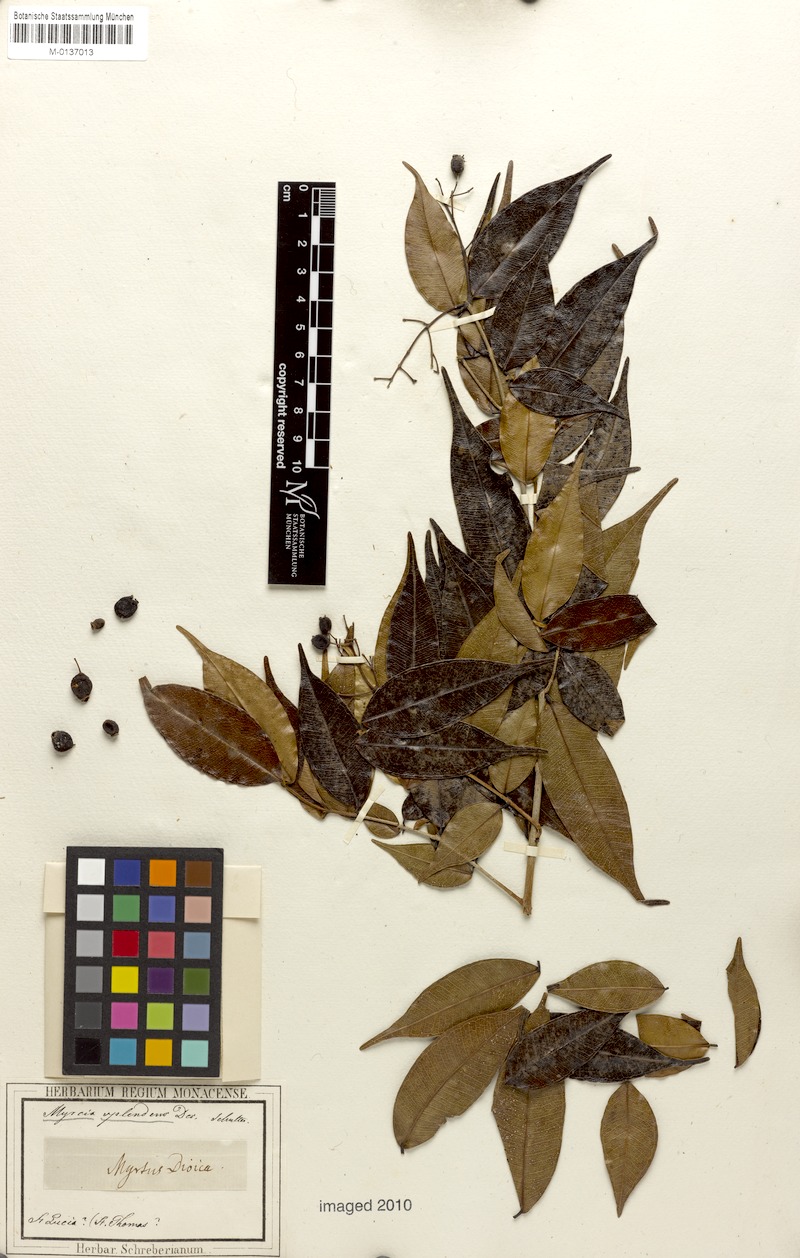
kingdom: Plantae
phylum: Tracheophyta
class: Magnoliopsida
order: Myrtales
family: Myrtaceae
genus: Myrcia
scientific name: Myrcia splendens
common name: Surinam cherry
